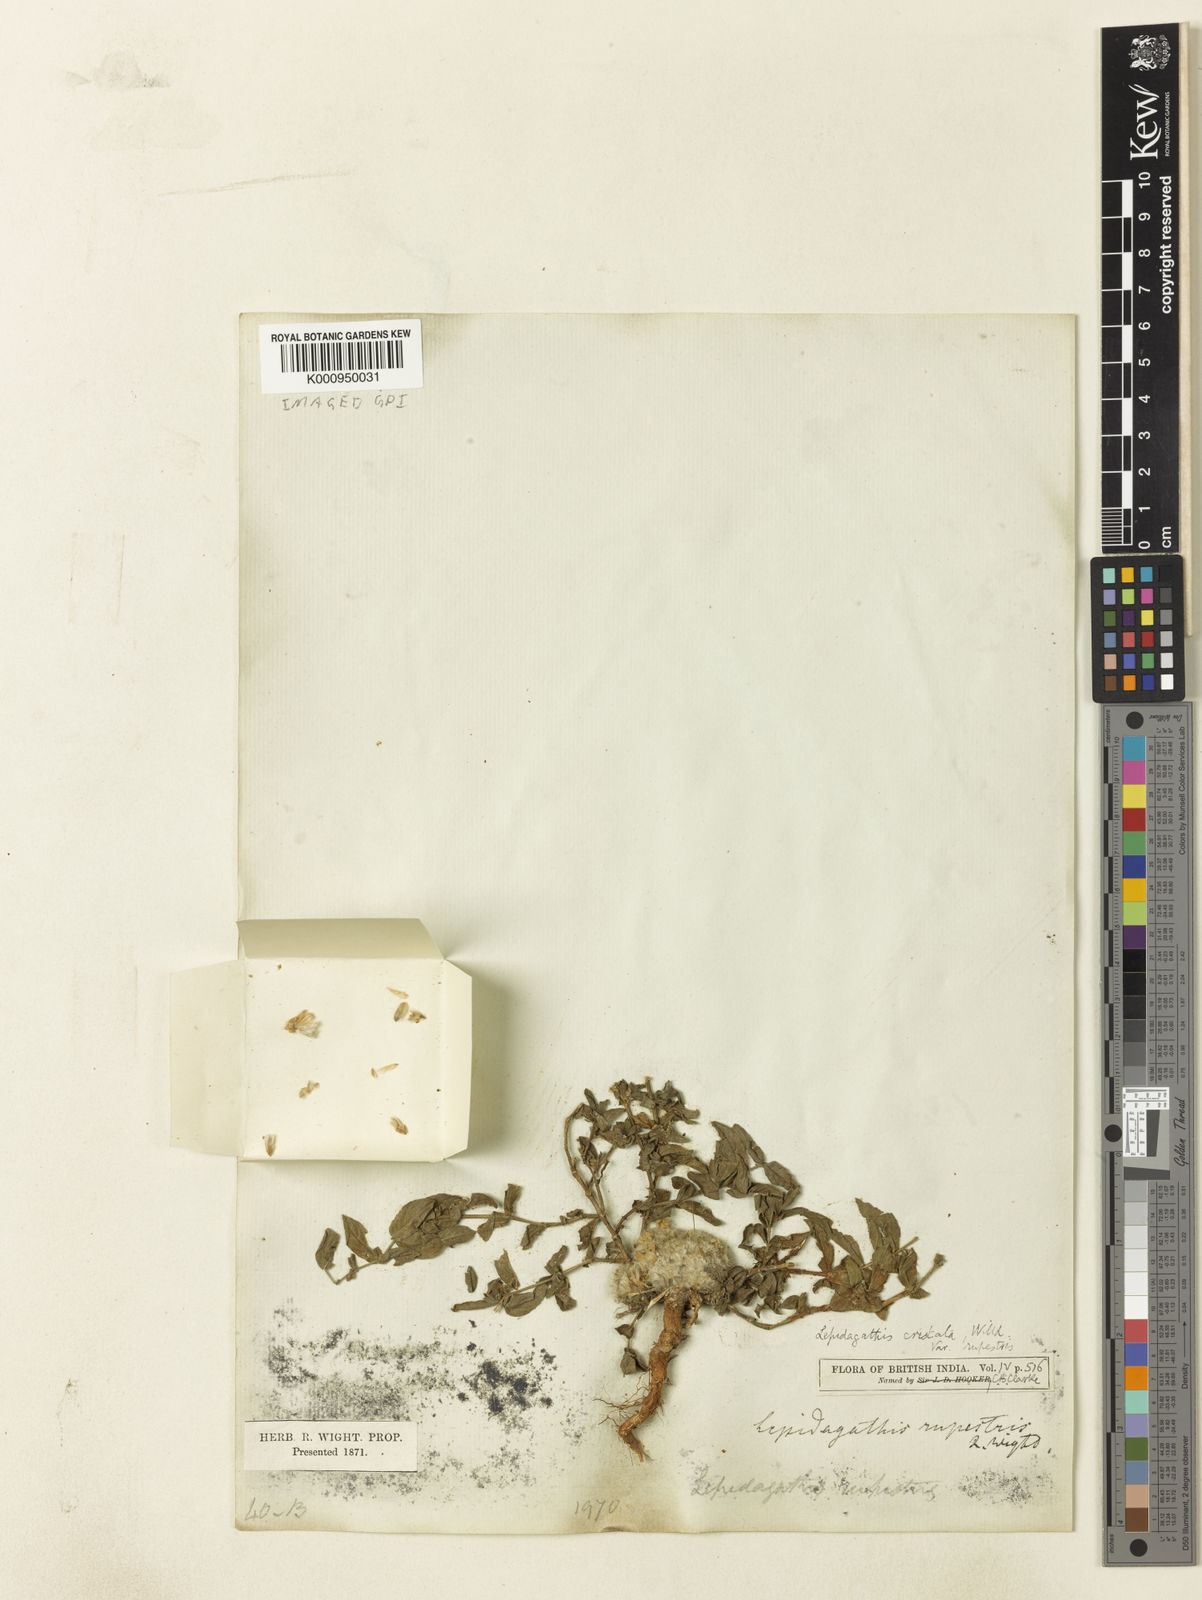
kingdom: Plantae
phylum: Tracheophyta
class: Magnoliopsida
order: Lamiales
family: Acanthaceae
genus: Lepidagathis
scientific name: Lepidagathis cristata
